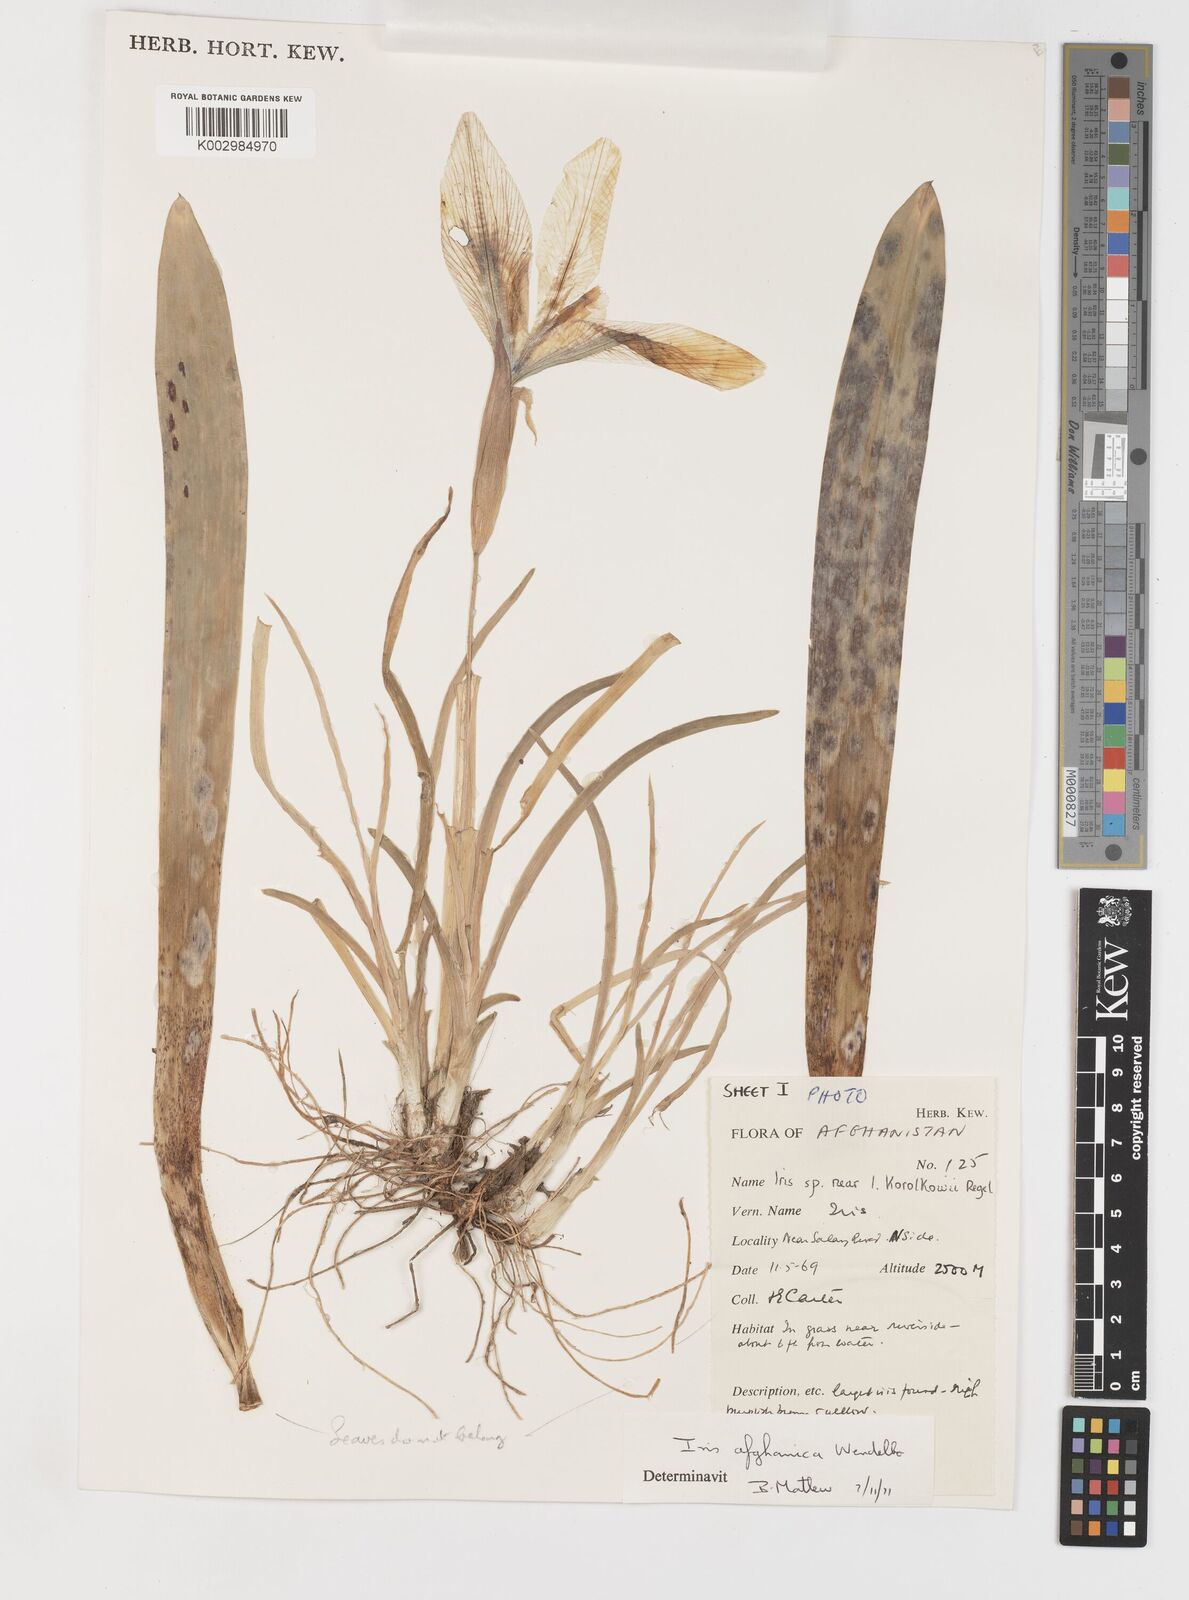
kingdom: Plantae
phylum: Tracheophyta
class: Liliopsida
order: Asparagales
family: Iridaceae
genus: Iris
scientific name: Iris afghanica
